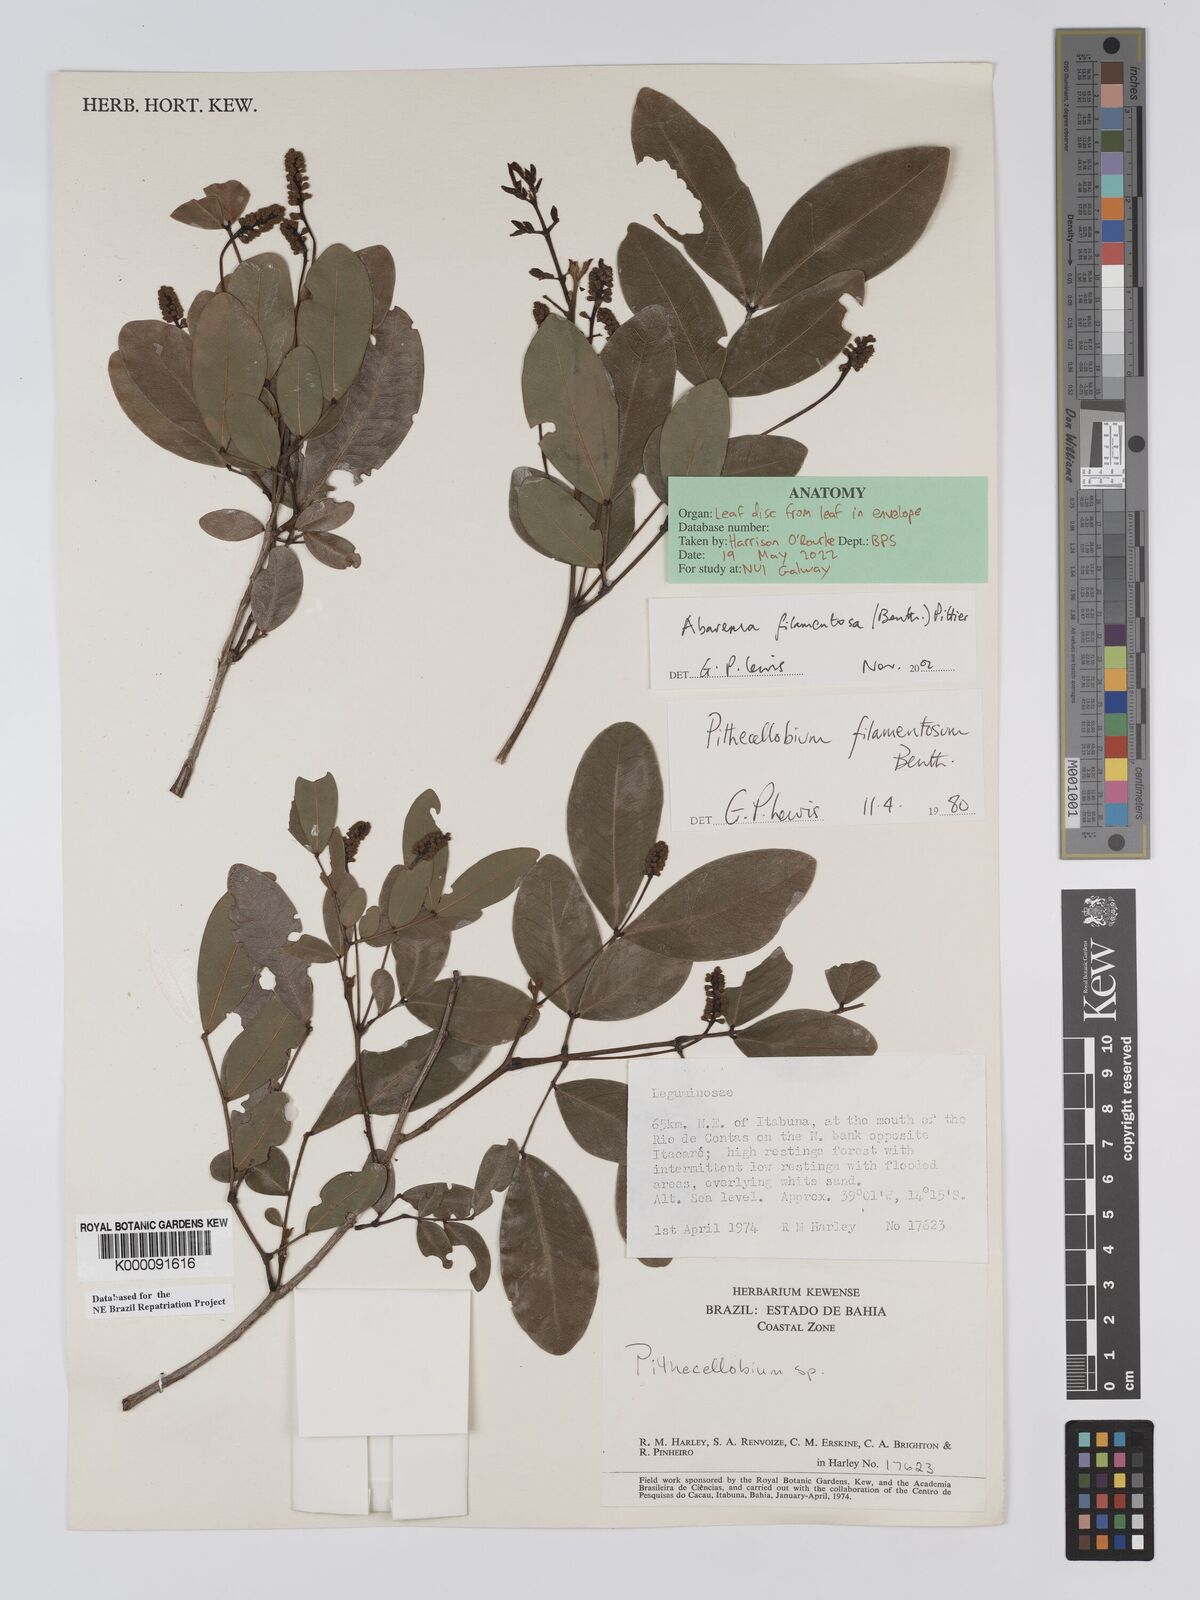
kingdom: Plantae
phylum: Tracheophyta
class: Magnoliopsida
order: Fabales
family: Fabaceae
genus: Jupunba
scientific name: Jupunba filamentosa
